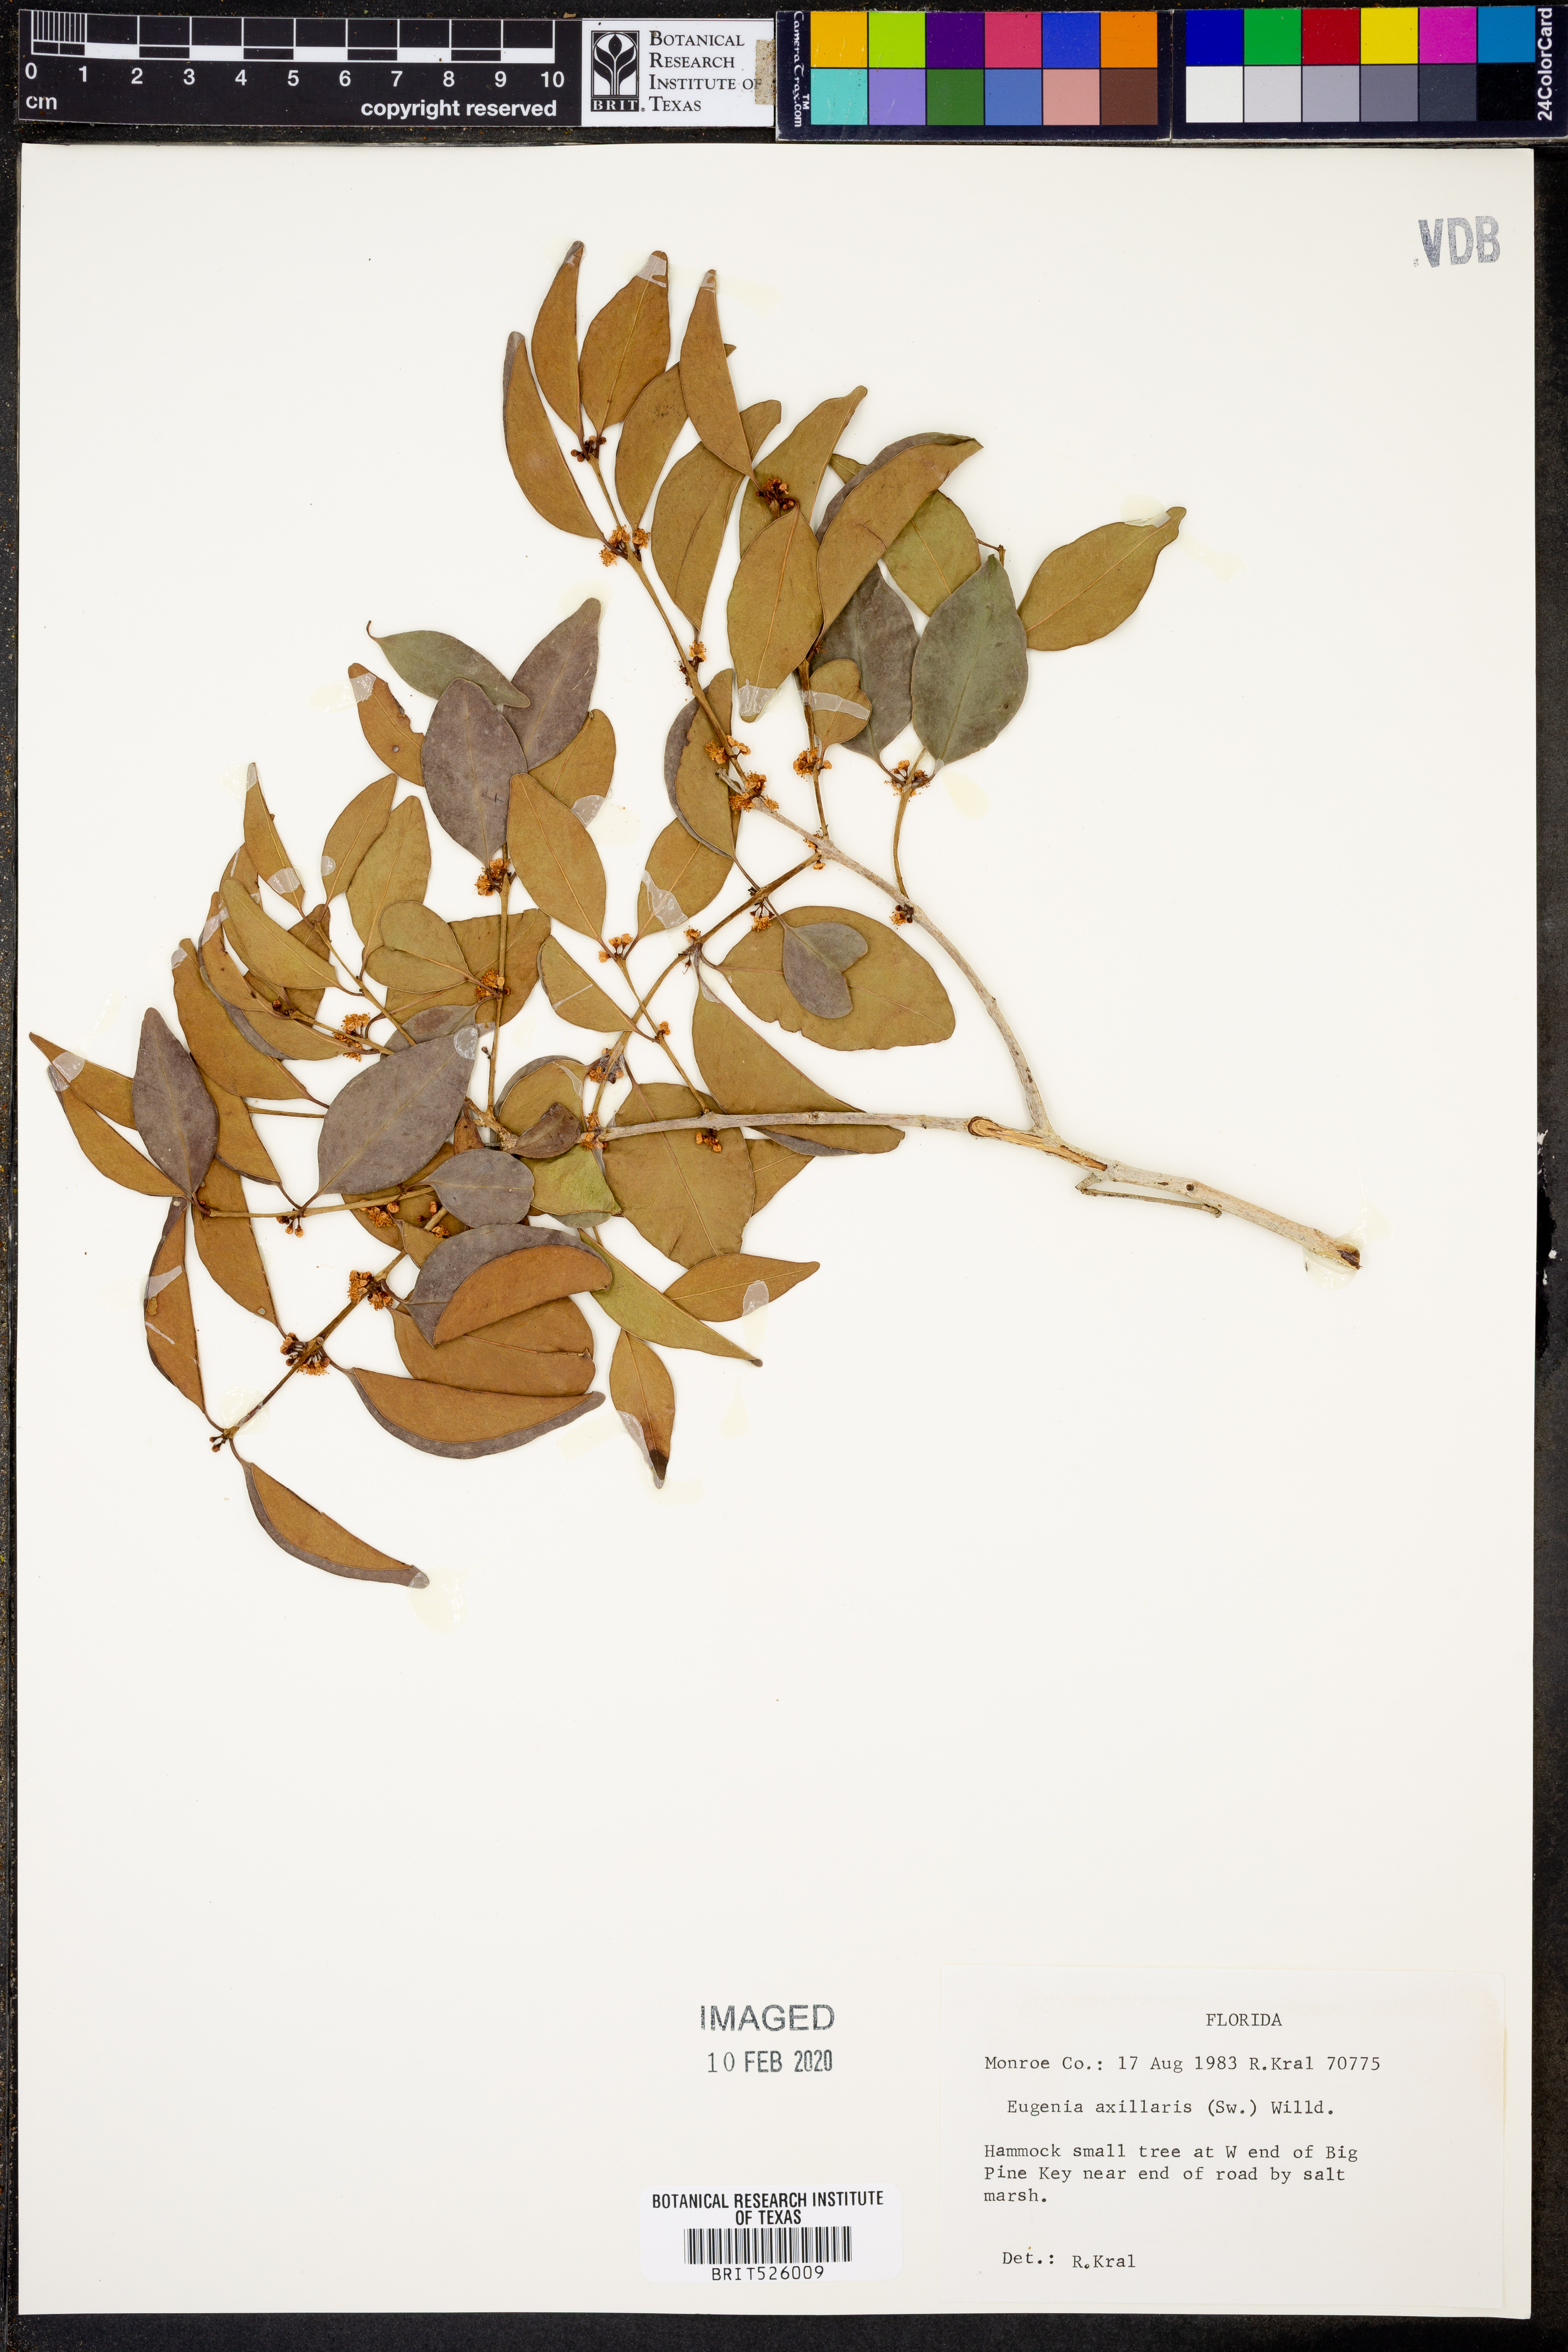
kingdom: Plantae
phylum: Tracheophyta
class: Magnoliopsida
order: Myrtales
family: Myrtaceae
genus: Eugenia
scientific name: Eugenia axillaris
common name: Choaky berry
